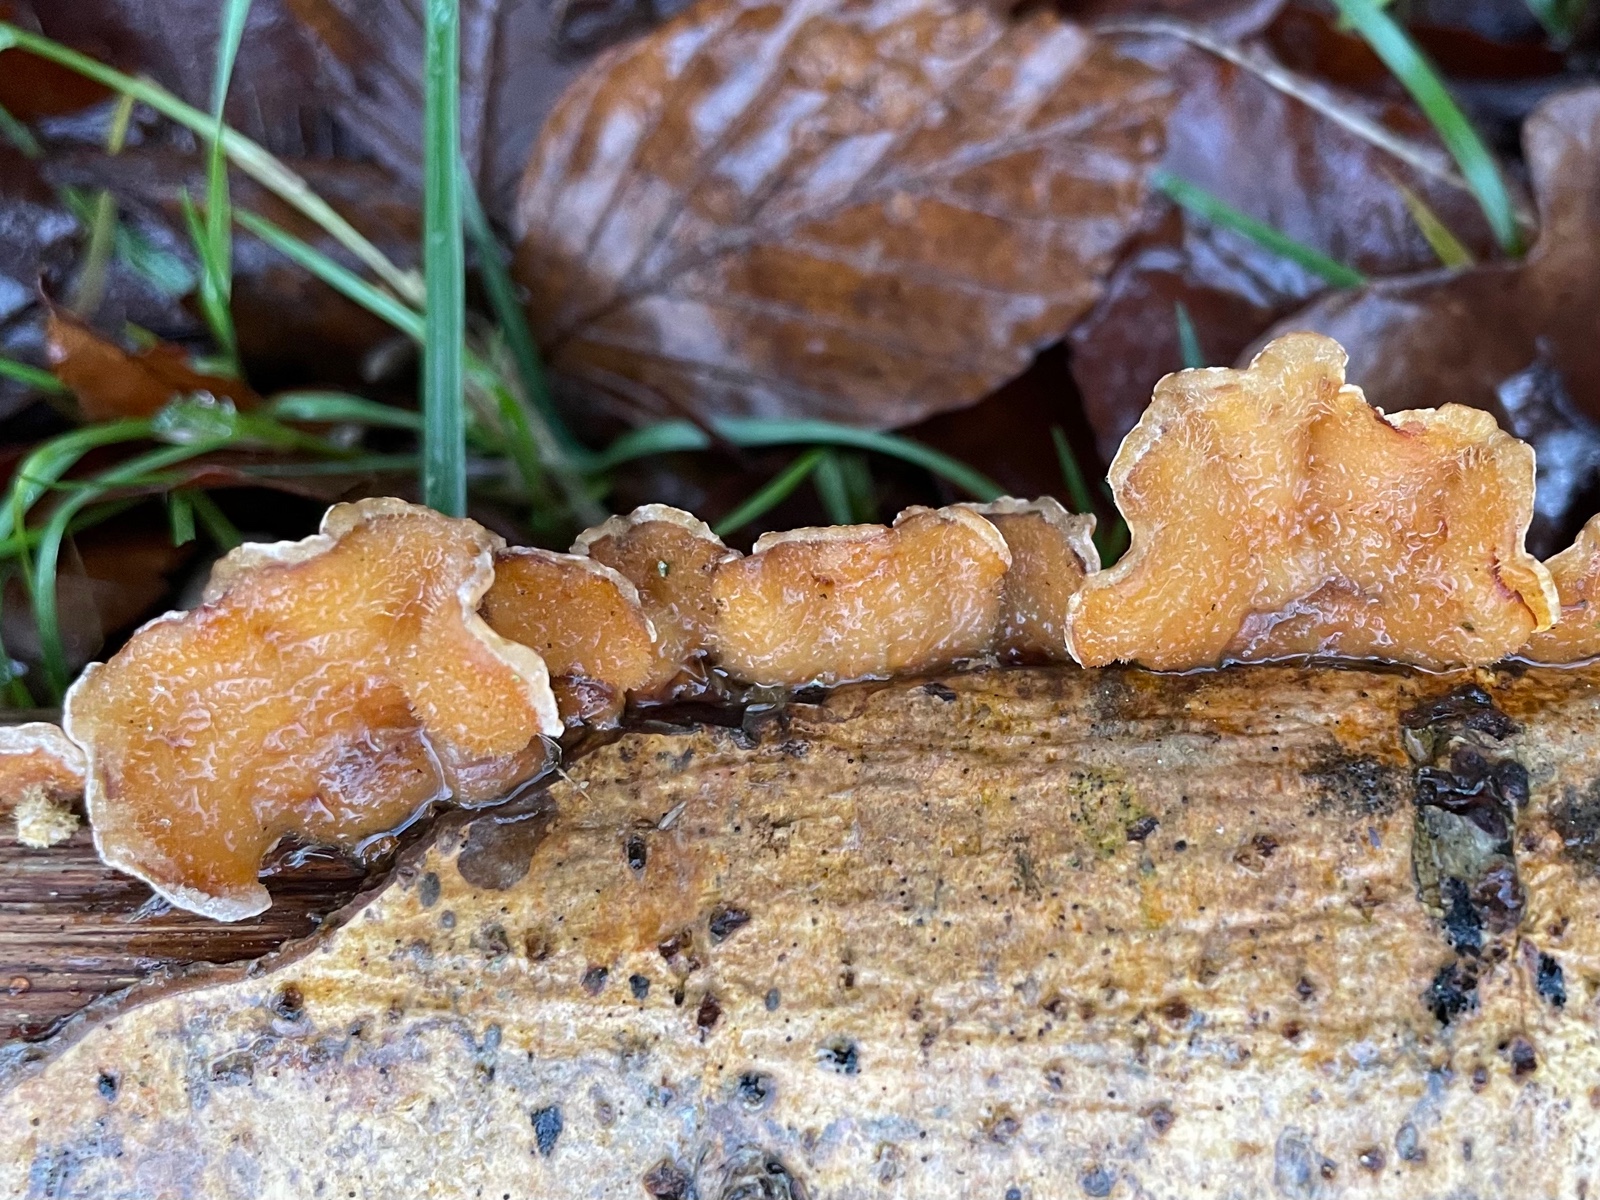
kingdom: Fungi
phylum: Basidiomycota
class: Agaricomycetes
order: Russulales
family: Stereaceae
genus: Stereum
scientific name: Stereum hirsutum
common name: håret lædersvamp
